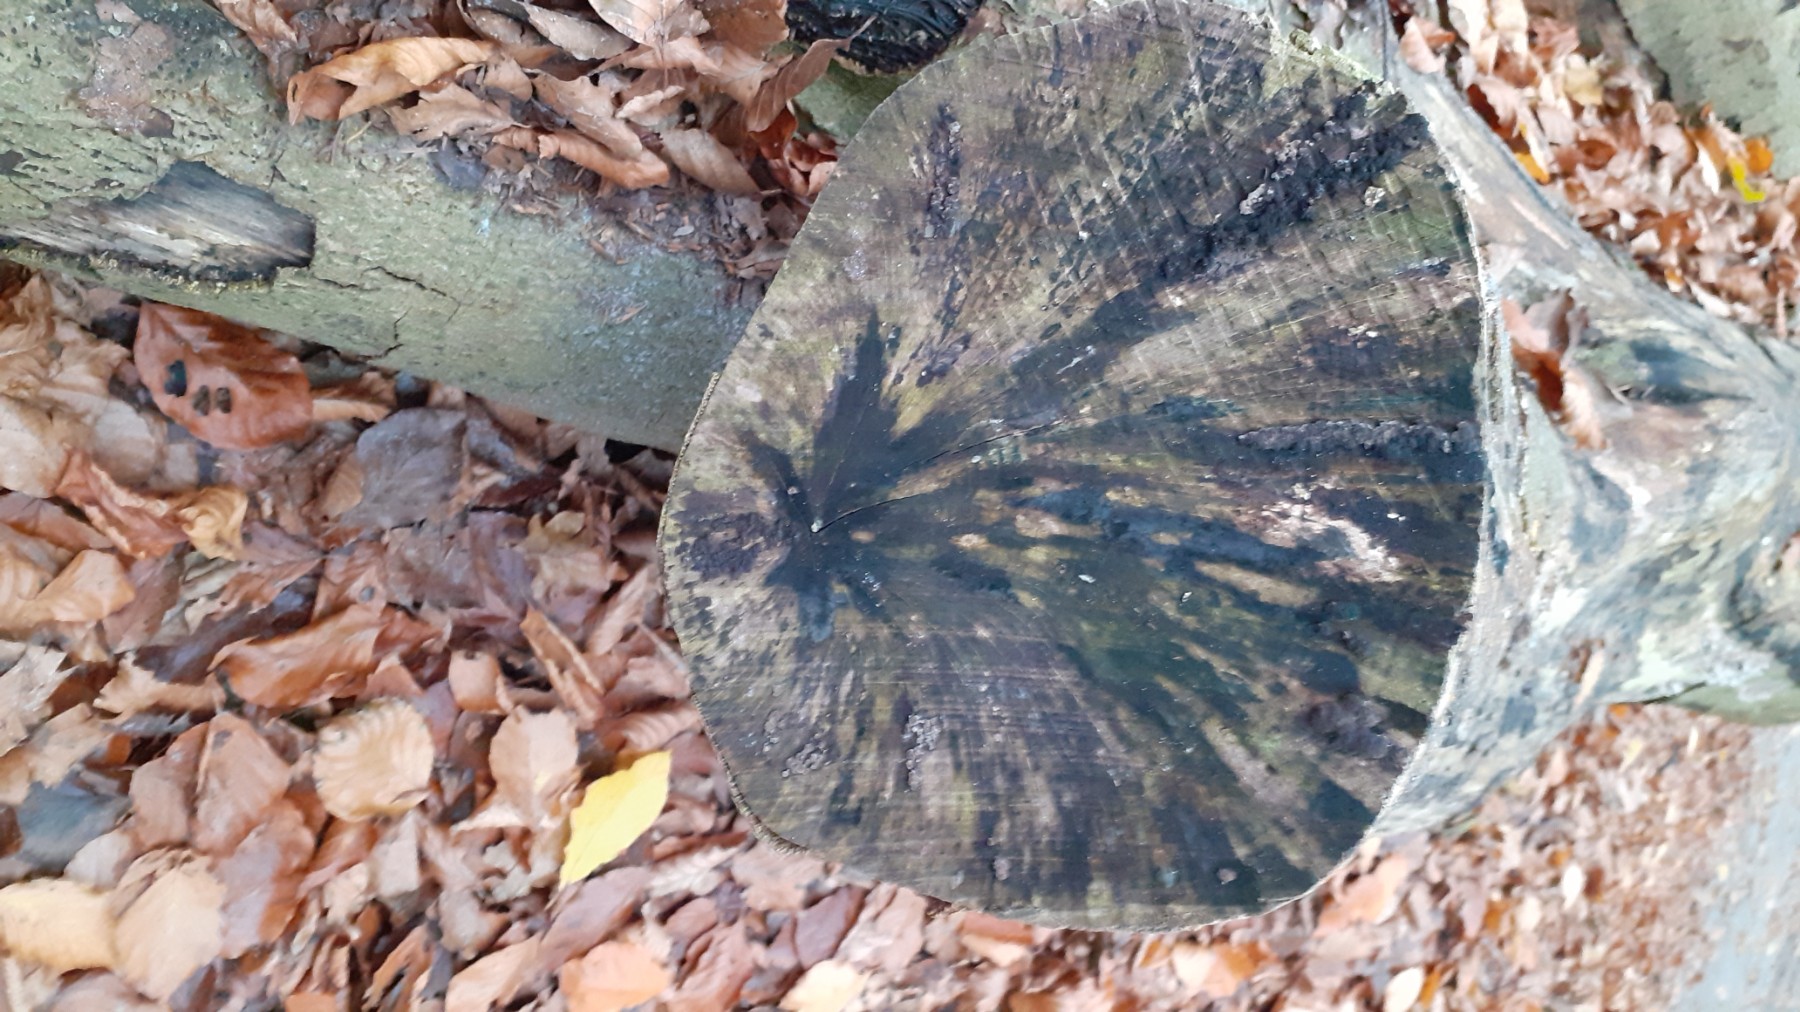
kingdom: Fungi
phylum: Ascomycota
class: Leotiomycetes
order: Helotiales
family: Helotiaceae
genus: Bispora
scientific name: Bispora pallescens
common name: måtte-snitskive
